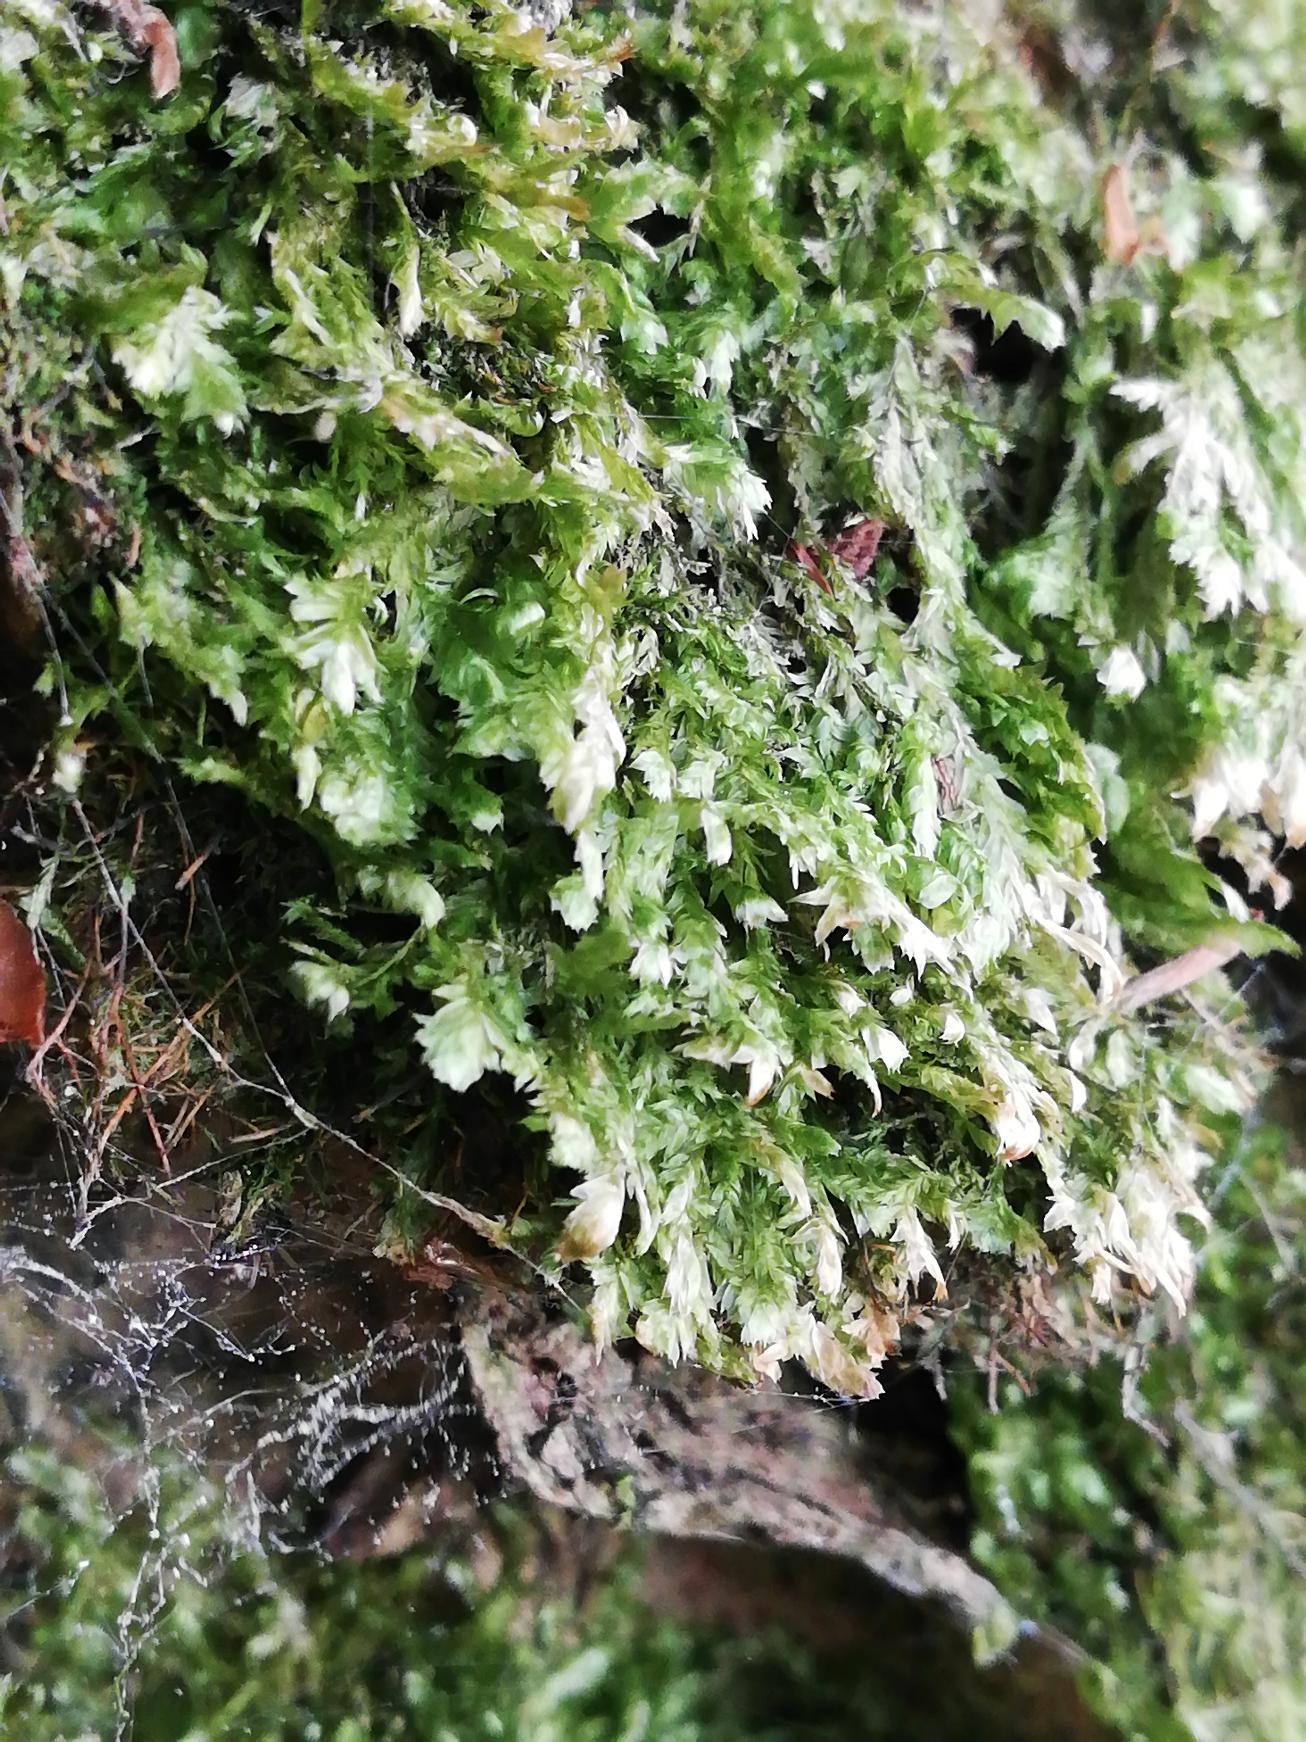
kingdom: Plantae
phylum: Bryophyta
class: Bryopsida
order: Hypnales
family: Neckeraceae
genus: Alleniella
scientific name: Alleniella complanata
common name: Almindelig fladmos
